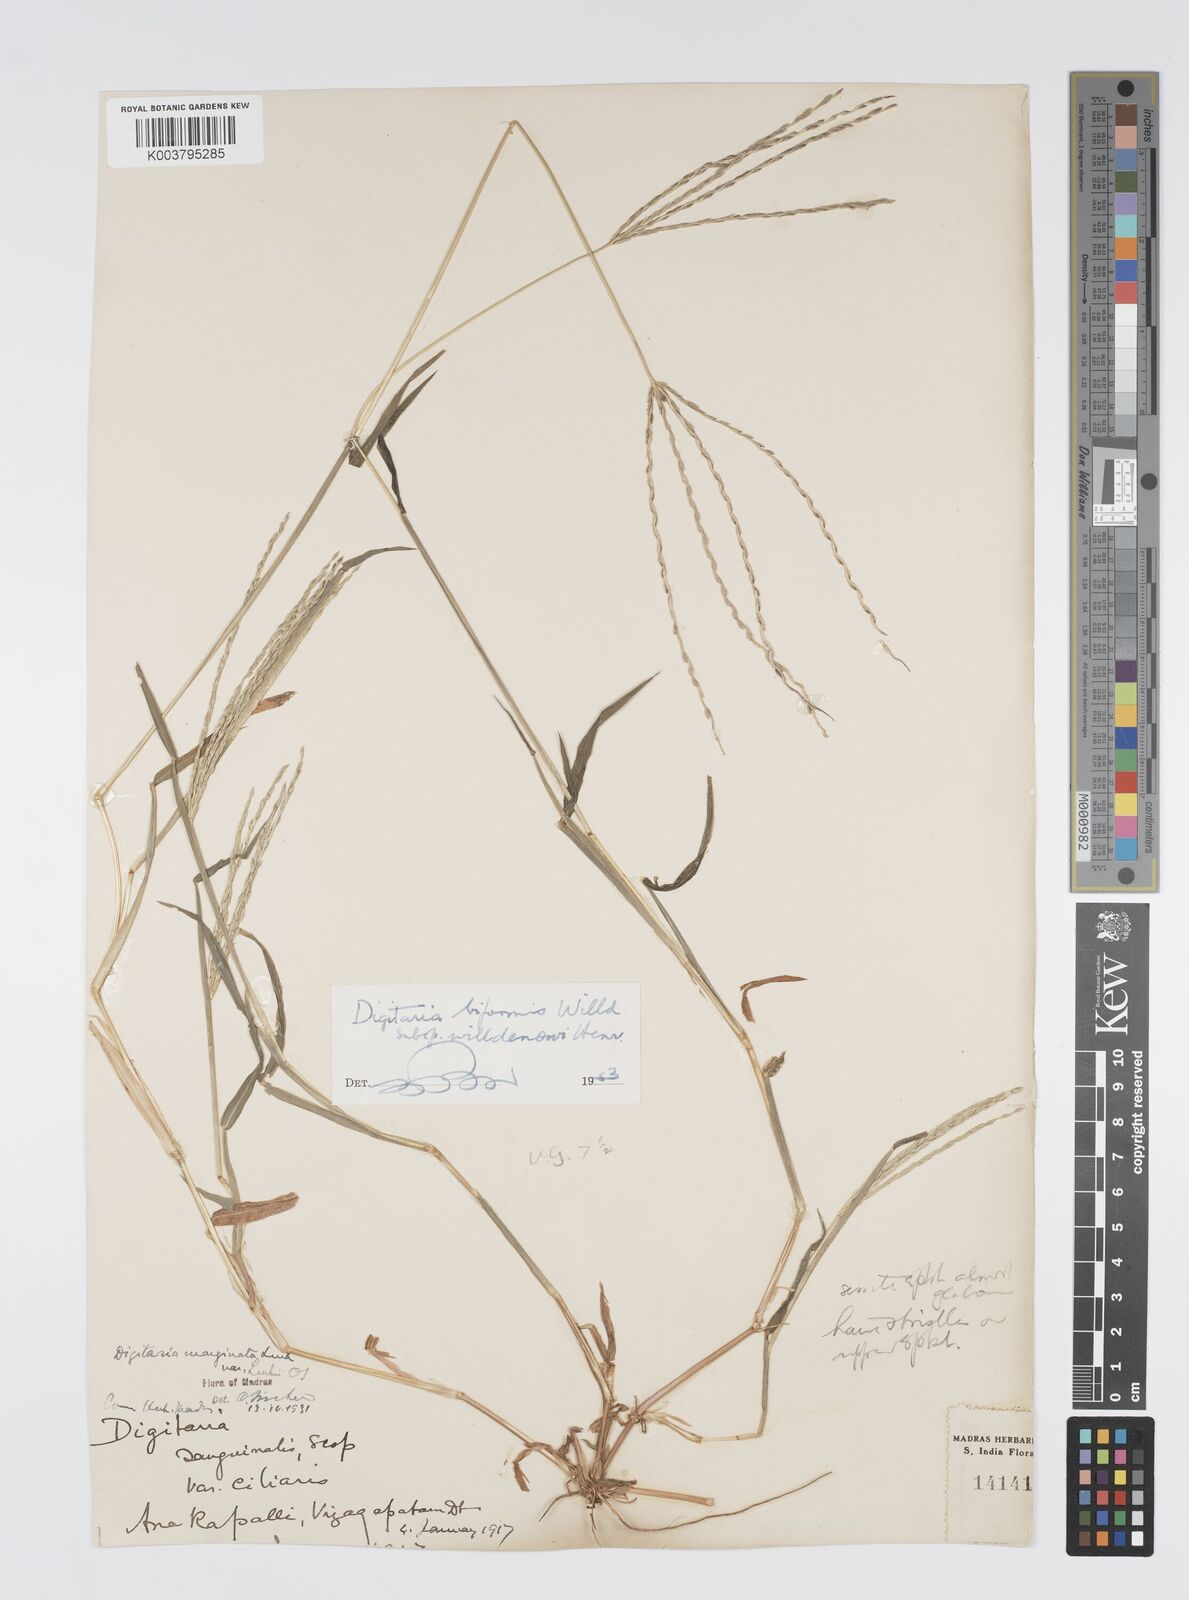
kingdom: Plantae
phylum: Tracheophyta
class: Liliopsida
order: Poales
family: Poaceae
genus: Digitaria
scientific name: Digitaria spec
